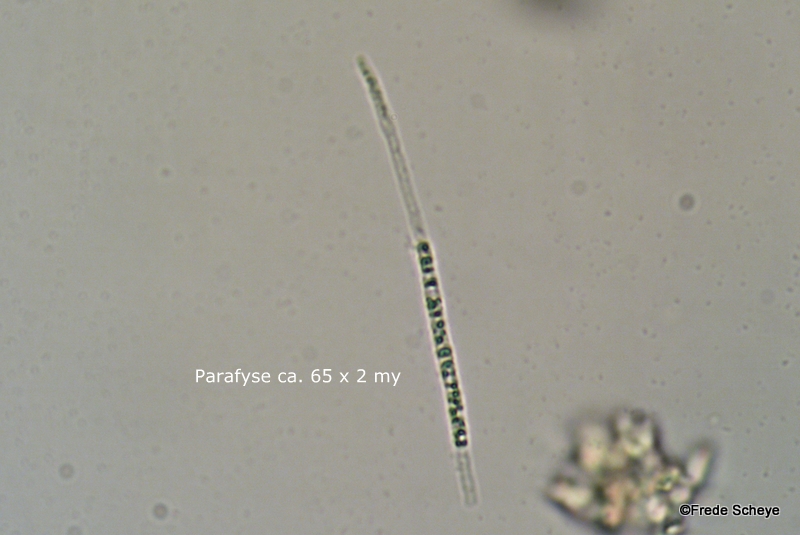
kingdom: Fungi
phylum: Ascomycota
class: Leotiomycetes
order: Helotiales
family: Helotiaceae
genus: Bisporella
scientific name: Bisporella subpallida
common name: lys snitskive
